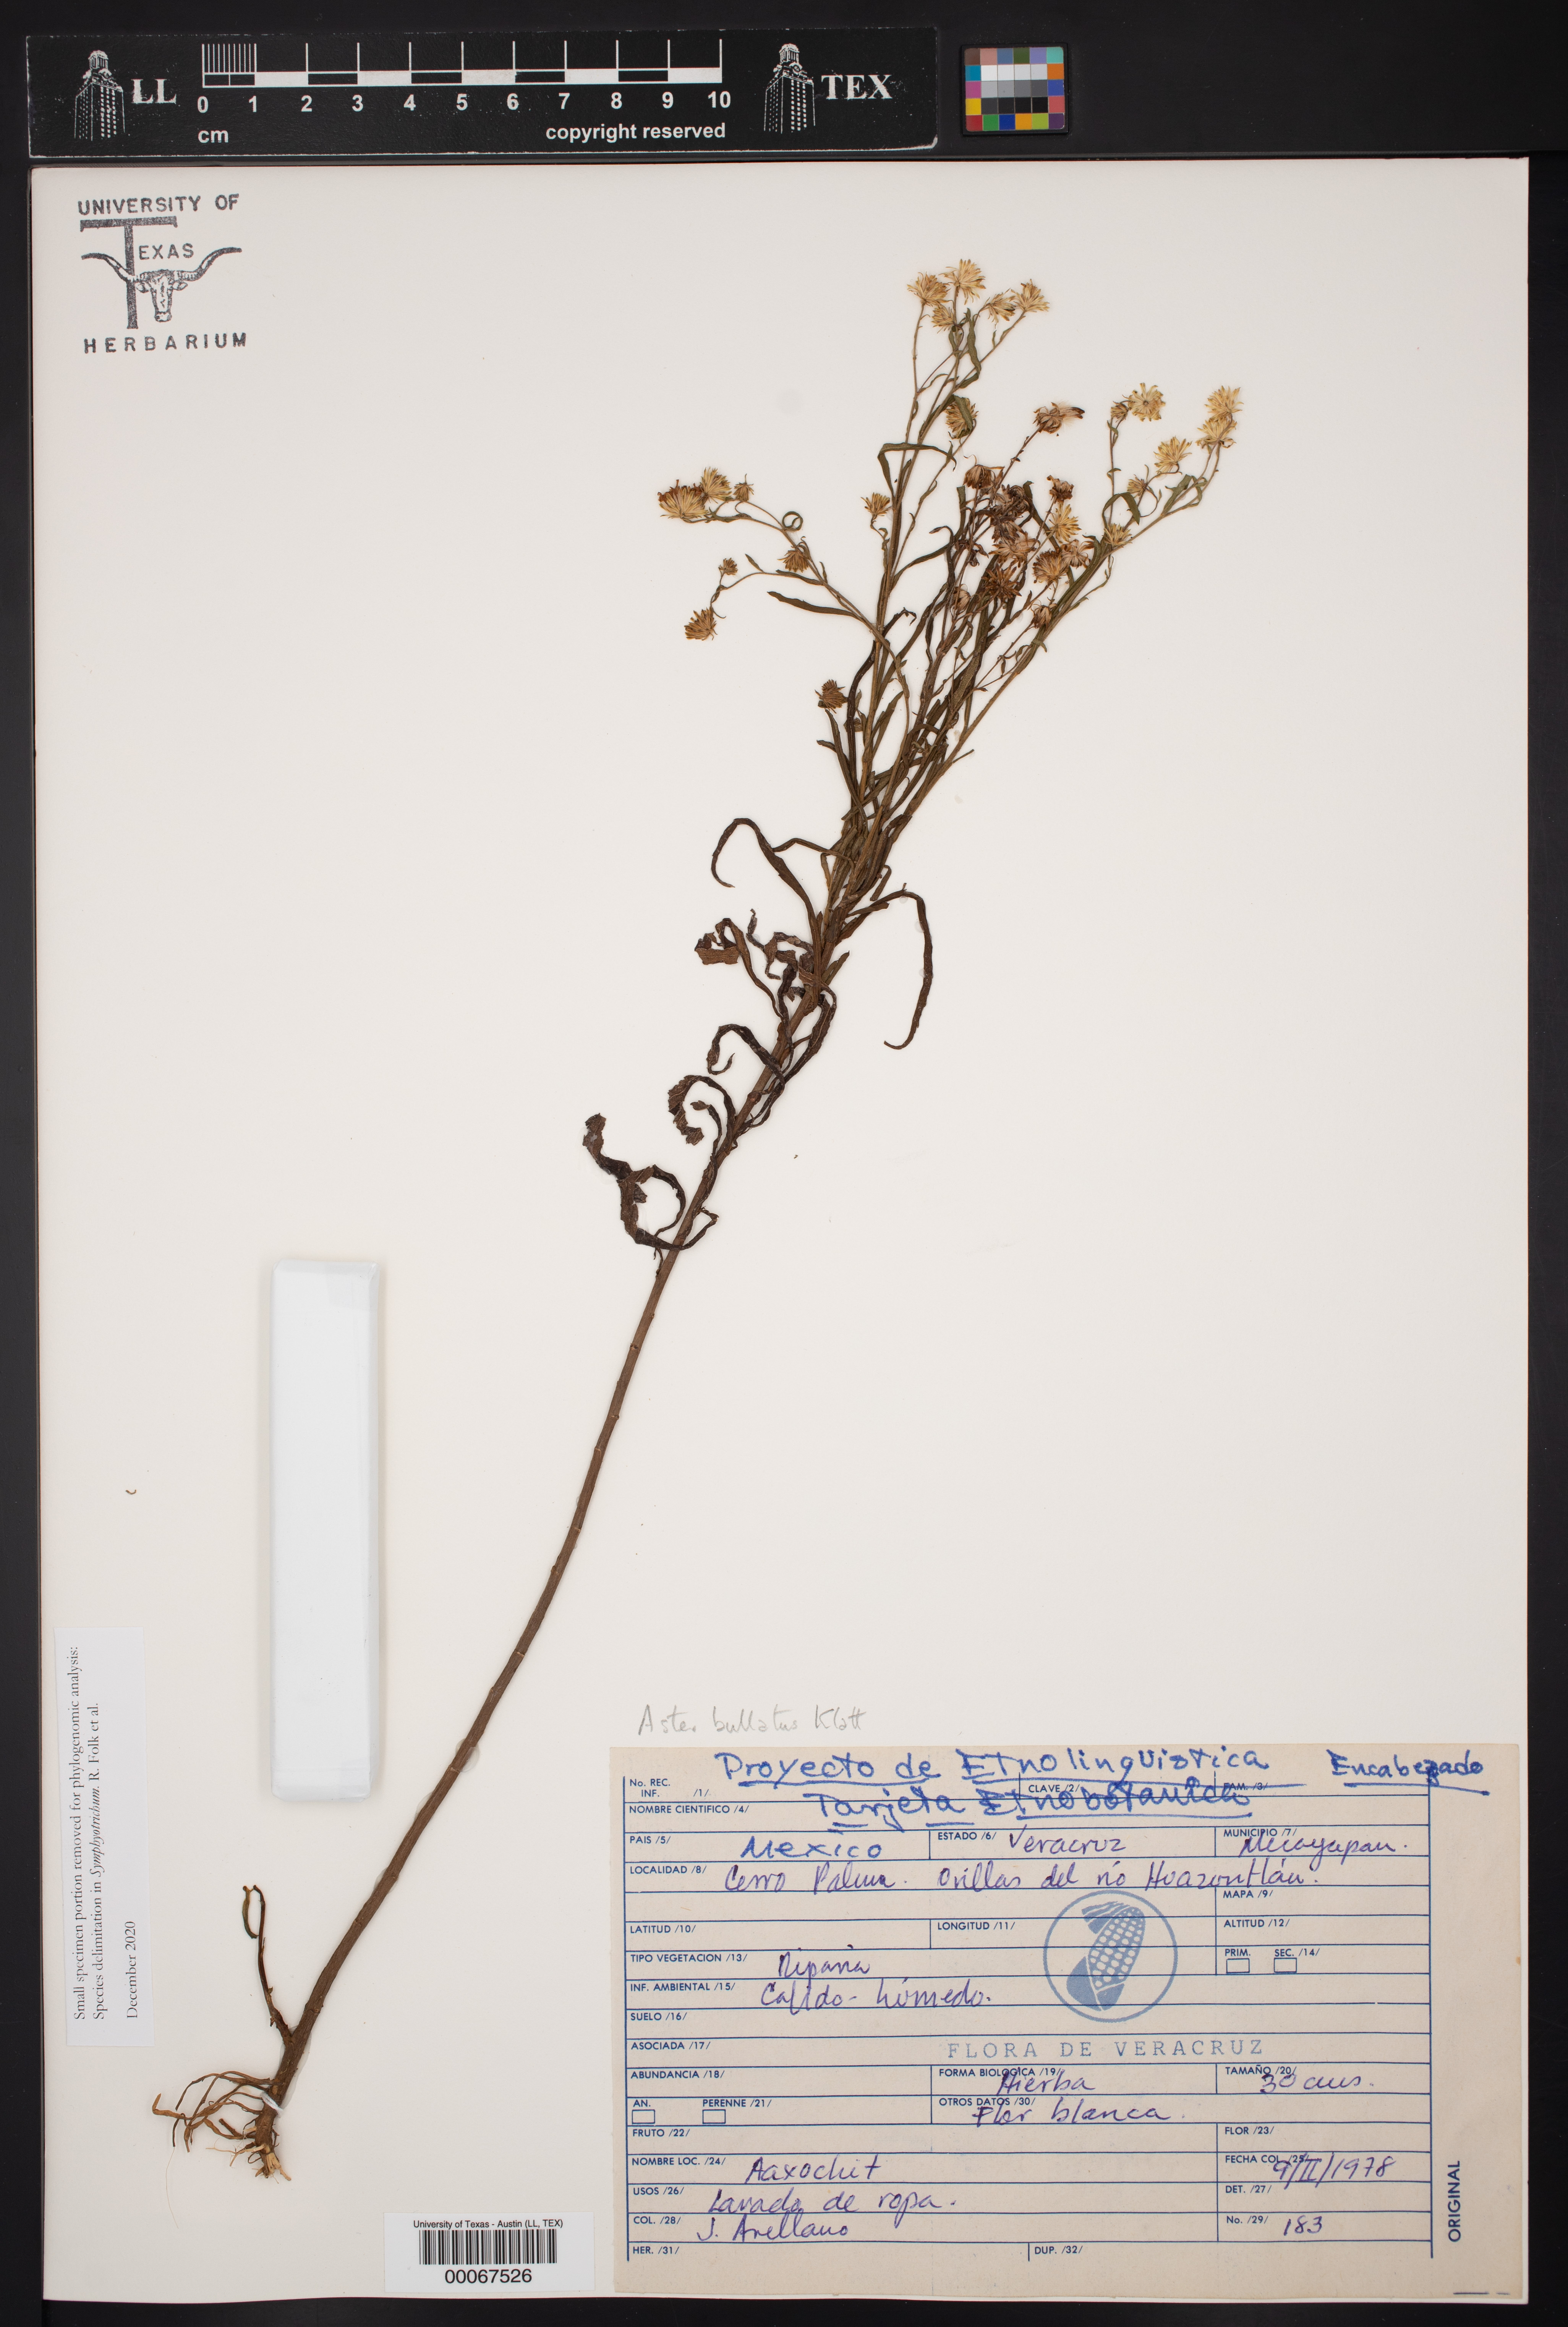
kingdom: Plantae
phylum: Tracheophyta
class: Magnoliopsida
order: Asterales
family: Asteraceae
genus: Symphyotrichum
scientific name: Symphyotrichum bullatum
